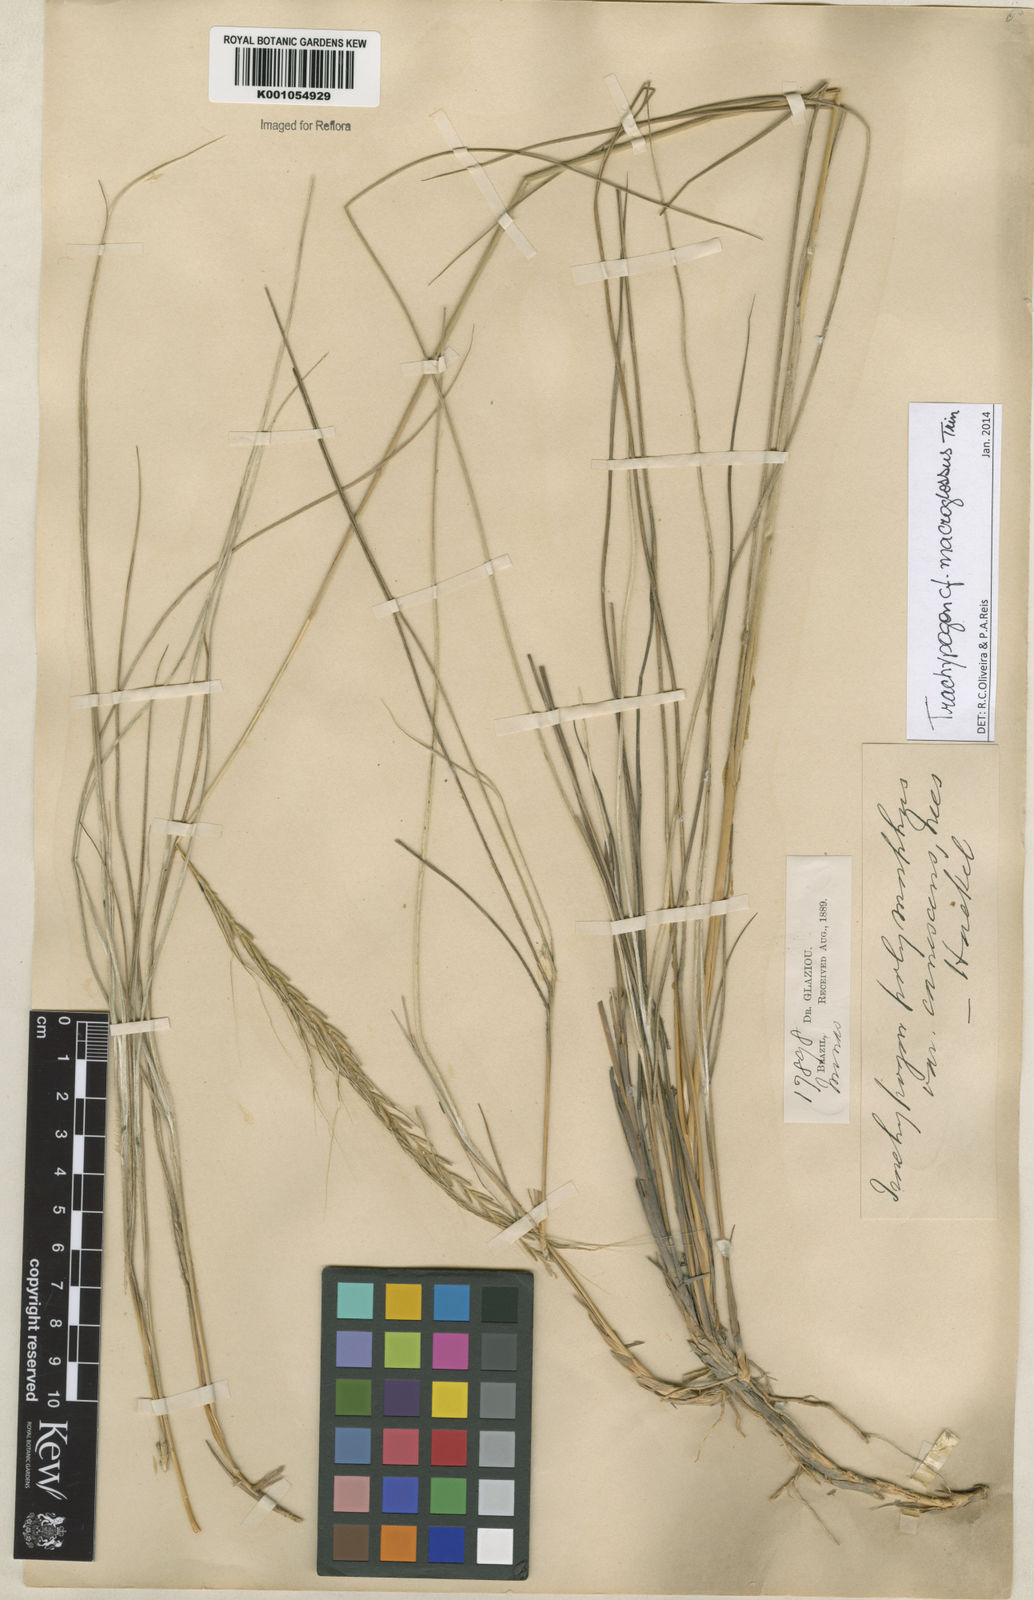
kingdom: Plantae
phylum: Tracheophyta
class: Liliopsida
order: Poales
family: Poaceae
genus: Trachypogon
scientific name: Trachypogon macroglossus
